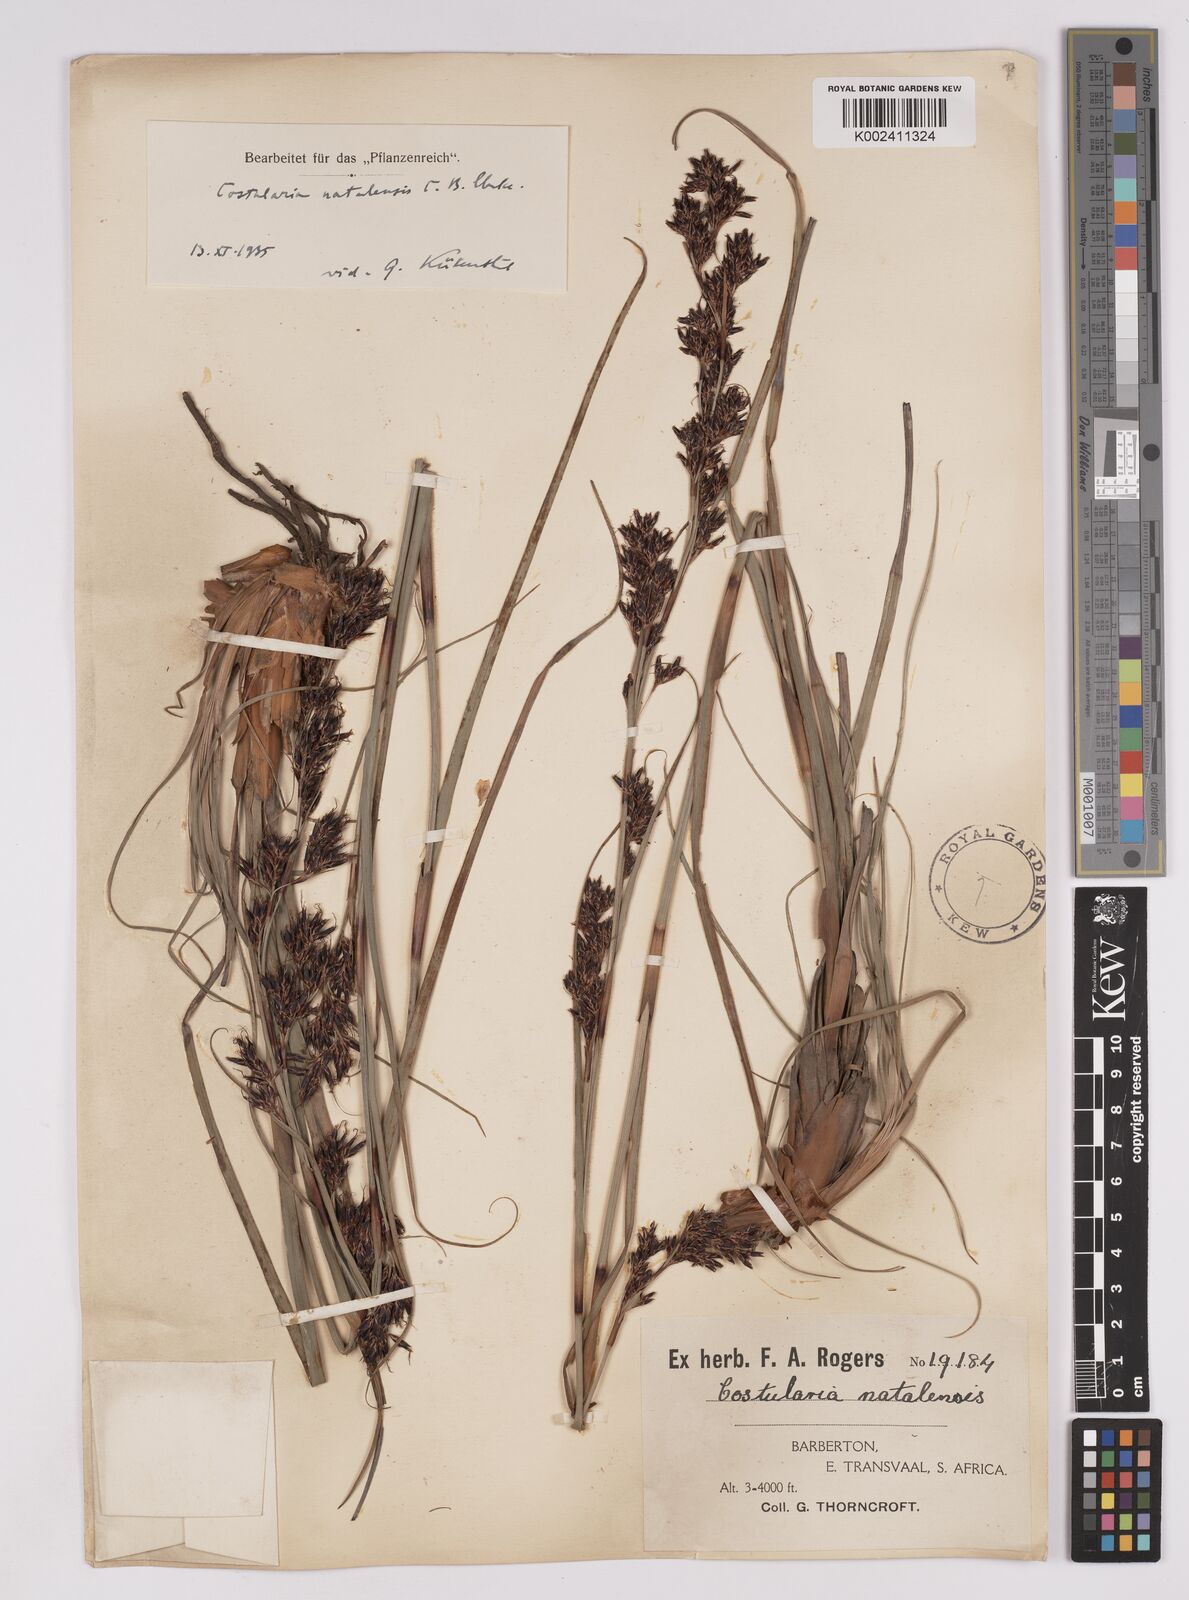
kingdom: Plantae
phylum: Tracheophyta
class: Liliopsida
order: Poales
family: Cyperaceae
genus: Costularia
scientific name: Costularia natalensis
